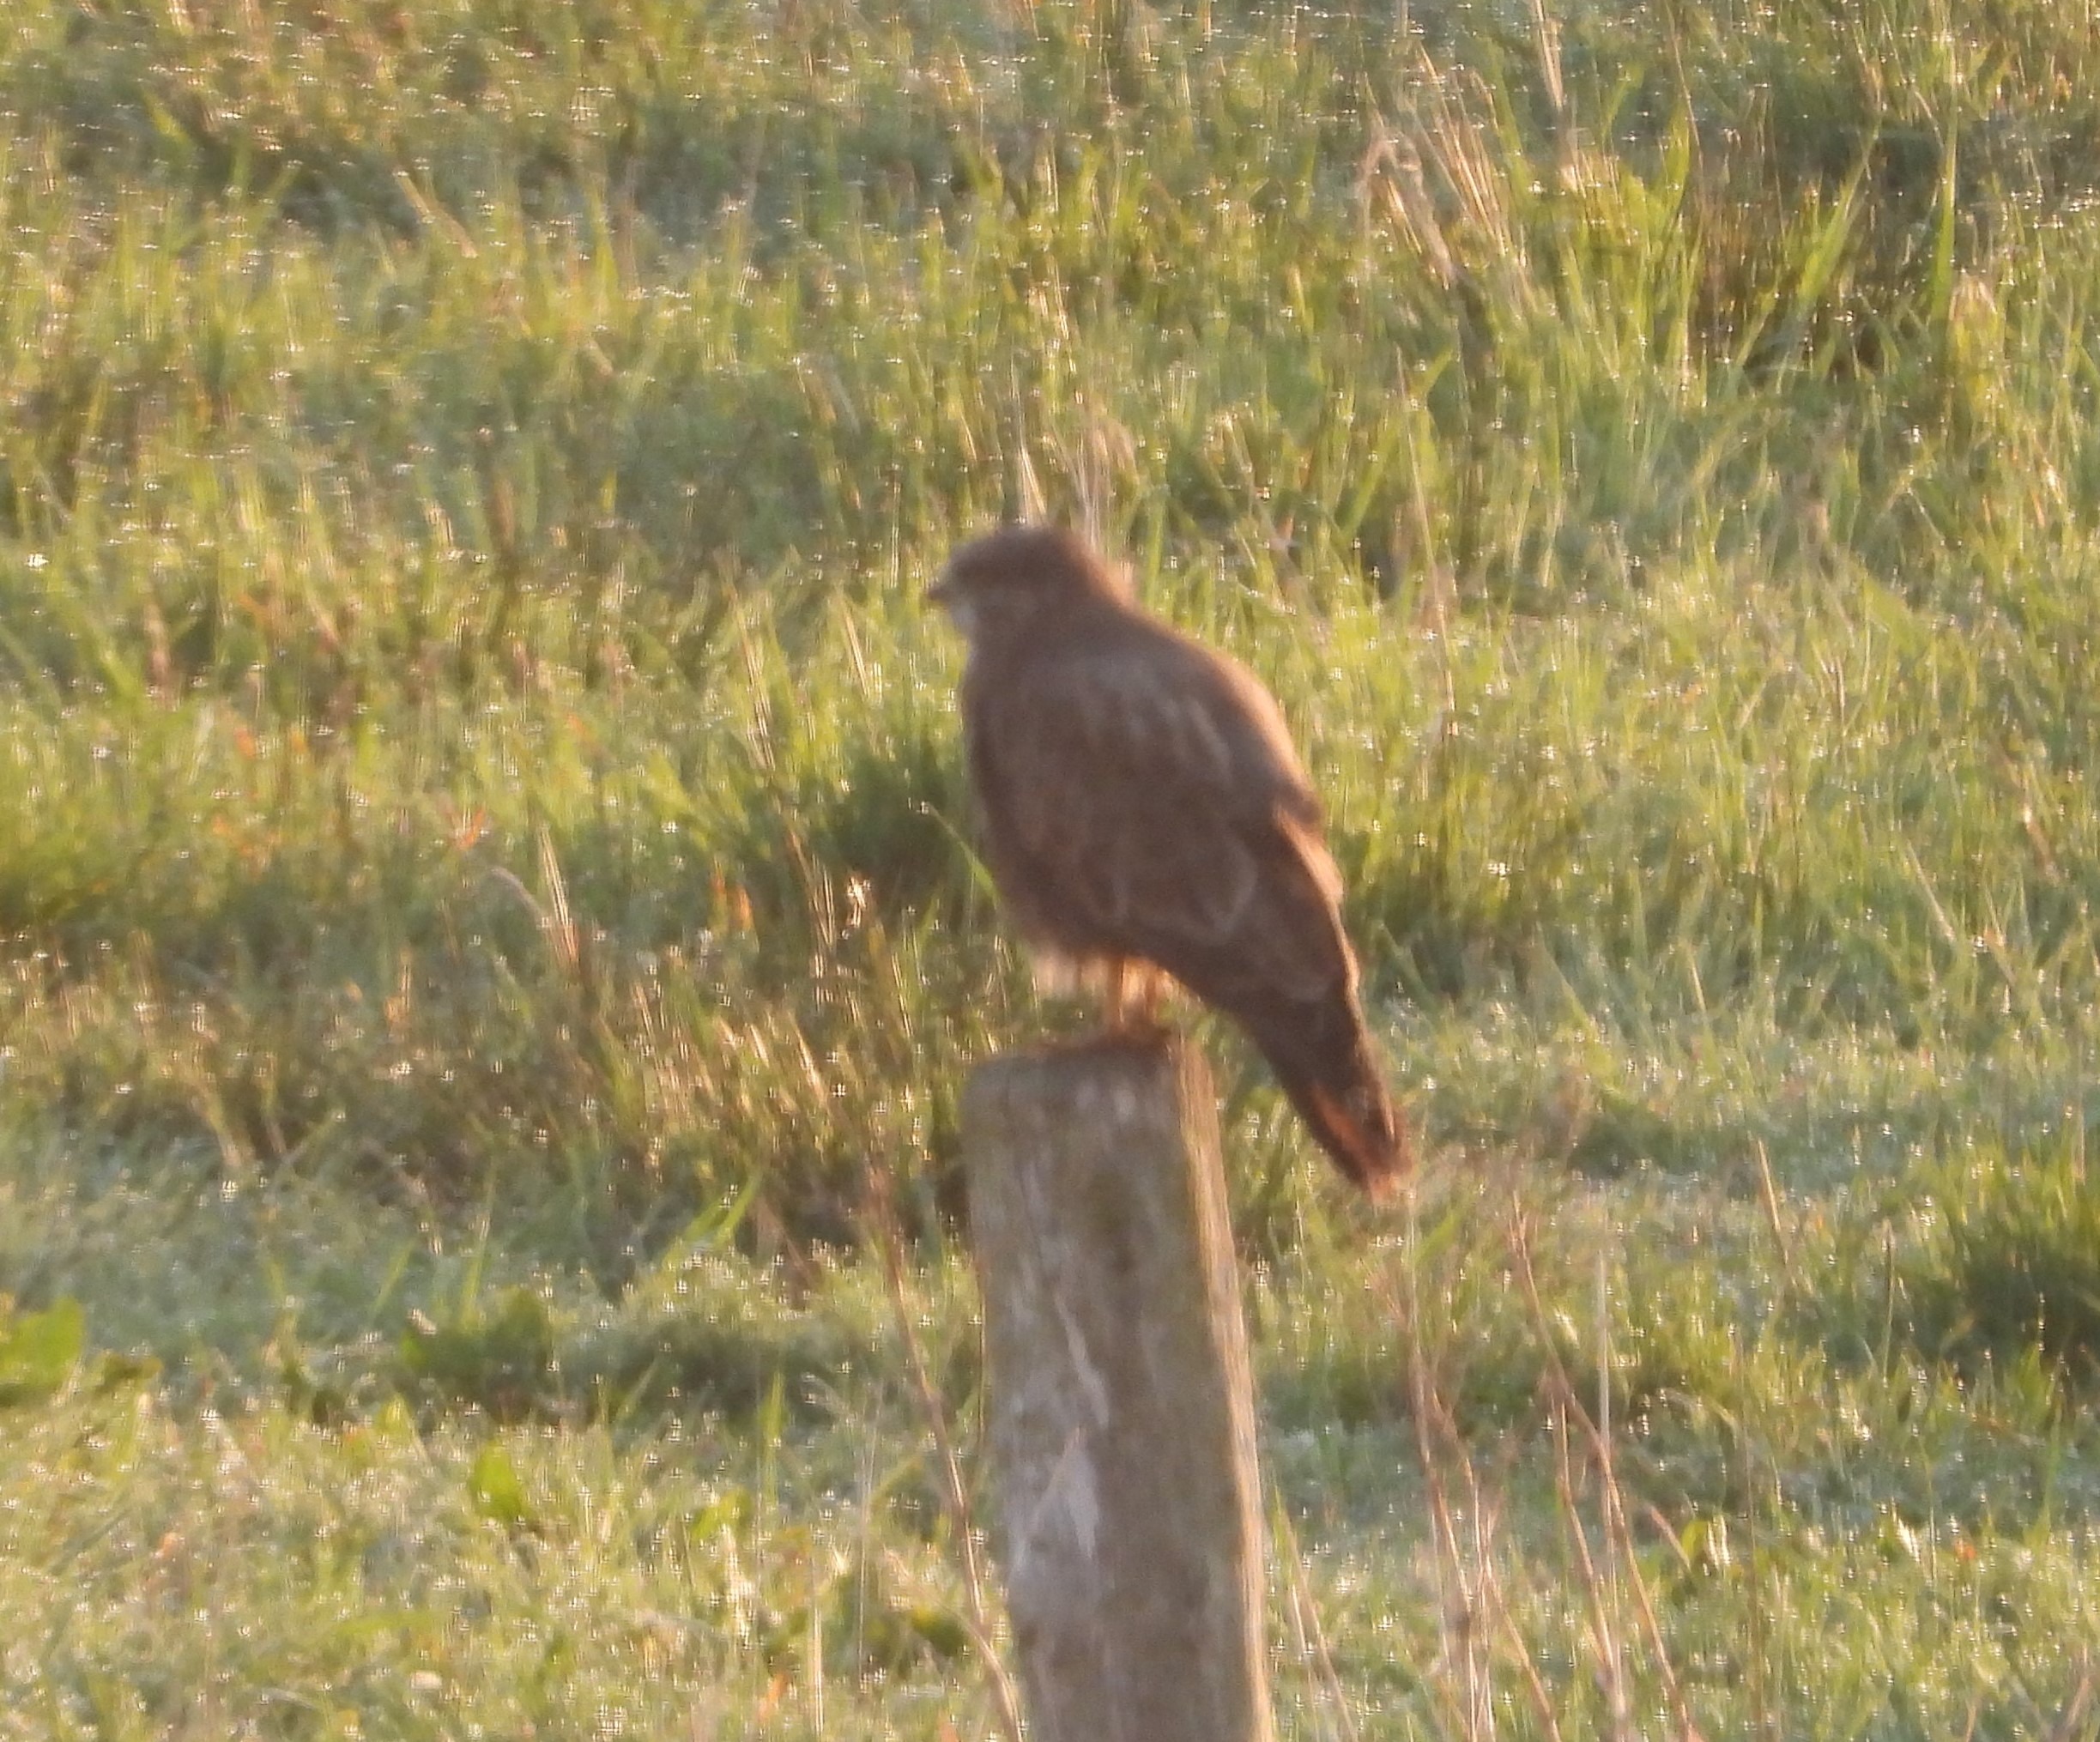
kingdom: Animalia
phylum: Chordata
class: Aves
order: Accipitriformes
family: Accipitridae
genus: Buteo
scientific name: Buteo buteo
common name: Musvåge
